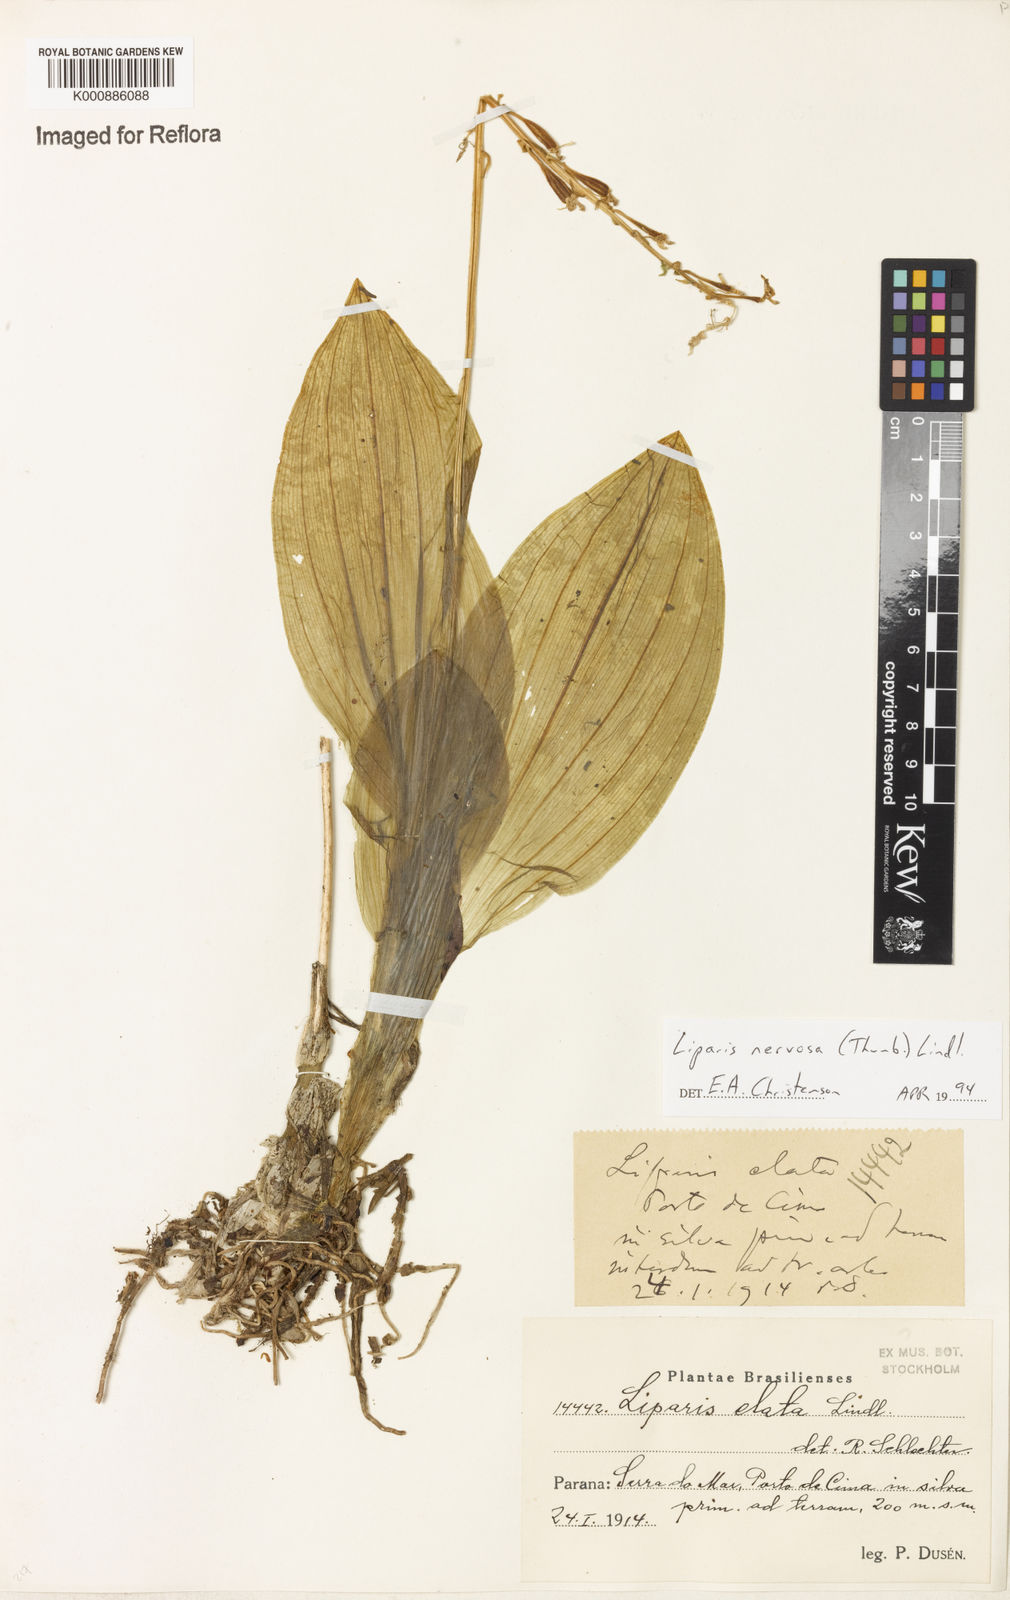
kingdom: Plantae
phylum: Tracheophyta
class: Liliopsida
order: Asparagales
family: Orchidaceae
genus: Liparis
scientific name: Liparis nervosa
